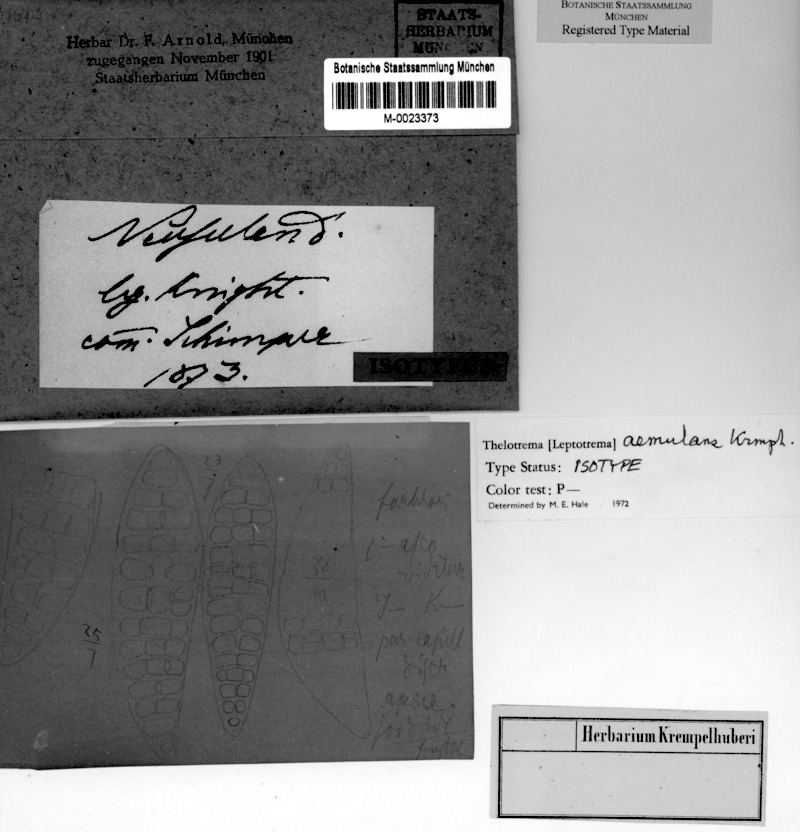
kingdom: Fungi
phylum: Ascomycota
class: Lecanoromycetes
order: Ostropales
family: Graphidaceae
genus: Thelotrema
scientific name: Thelotrema lepadinum
